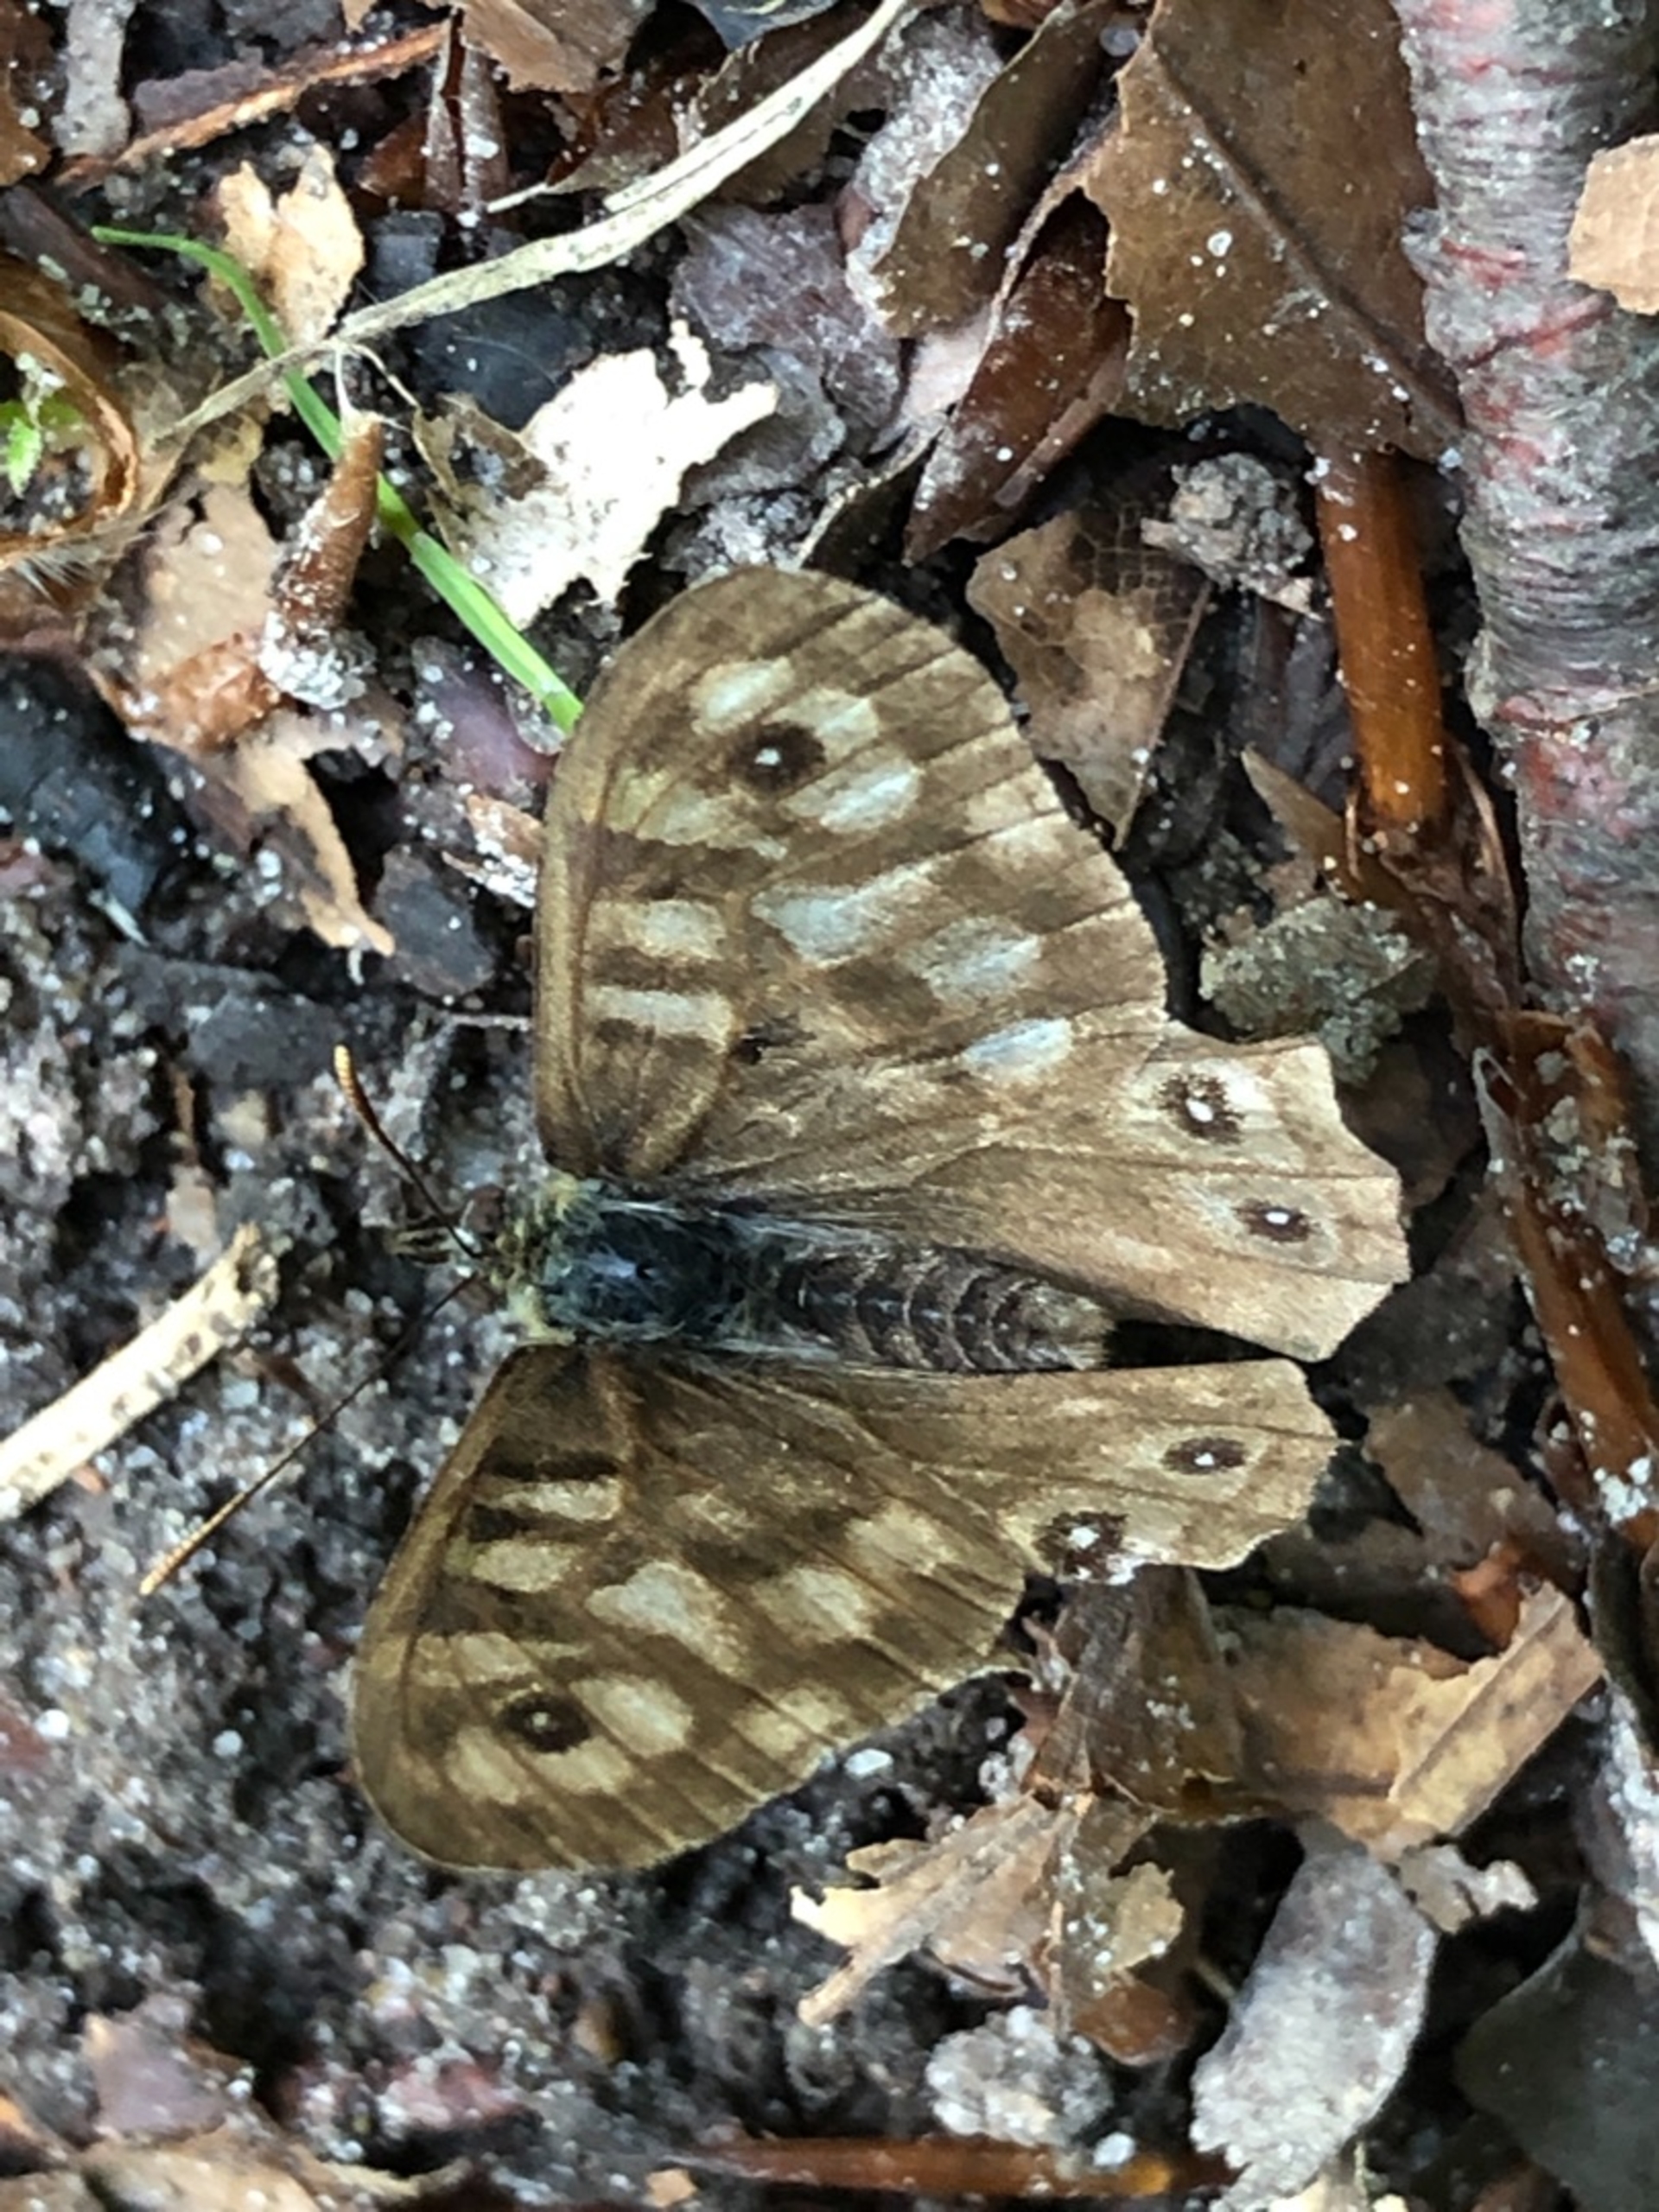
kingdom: Animalia
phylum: Arthropoda
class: Insecta
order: Lepidoptera
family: Nymphalidae
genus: Pararge
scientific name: Pararge aegeria
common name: Skovrandøje
